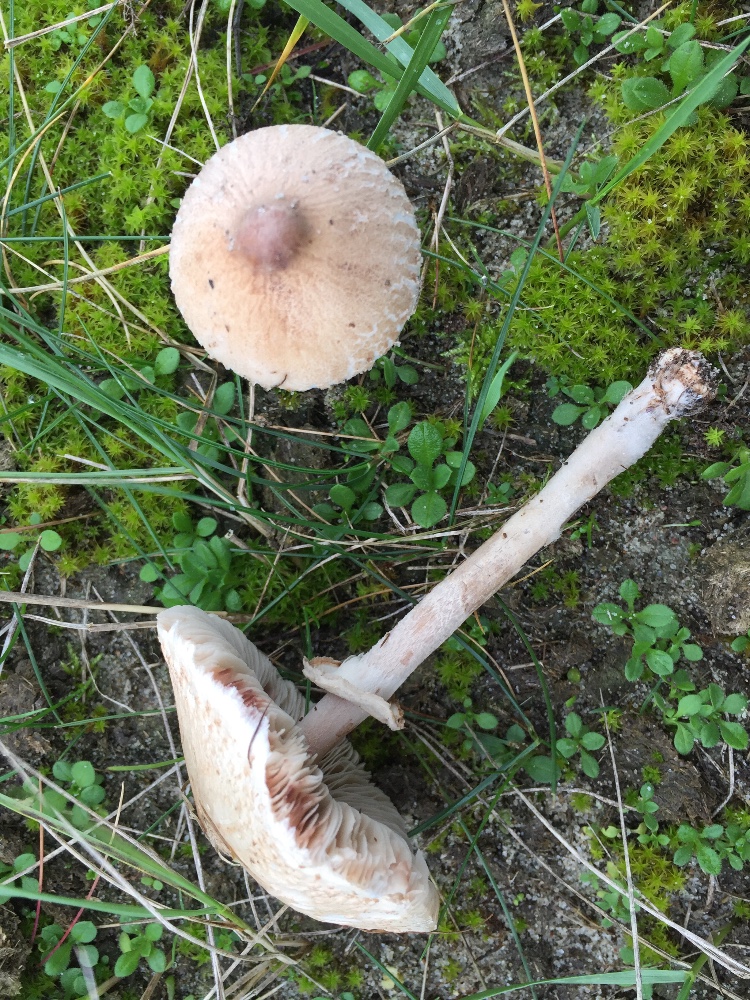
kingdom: Fungi
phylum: Basidiomycota
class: Agaricomycetes
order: Agaricales
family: Agaricaceae
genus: Macrolepiota
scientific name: Macrolepiota
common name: kæmpeparasolhat
